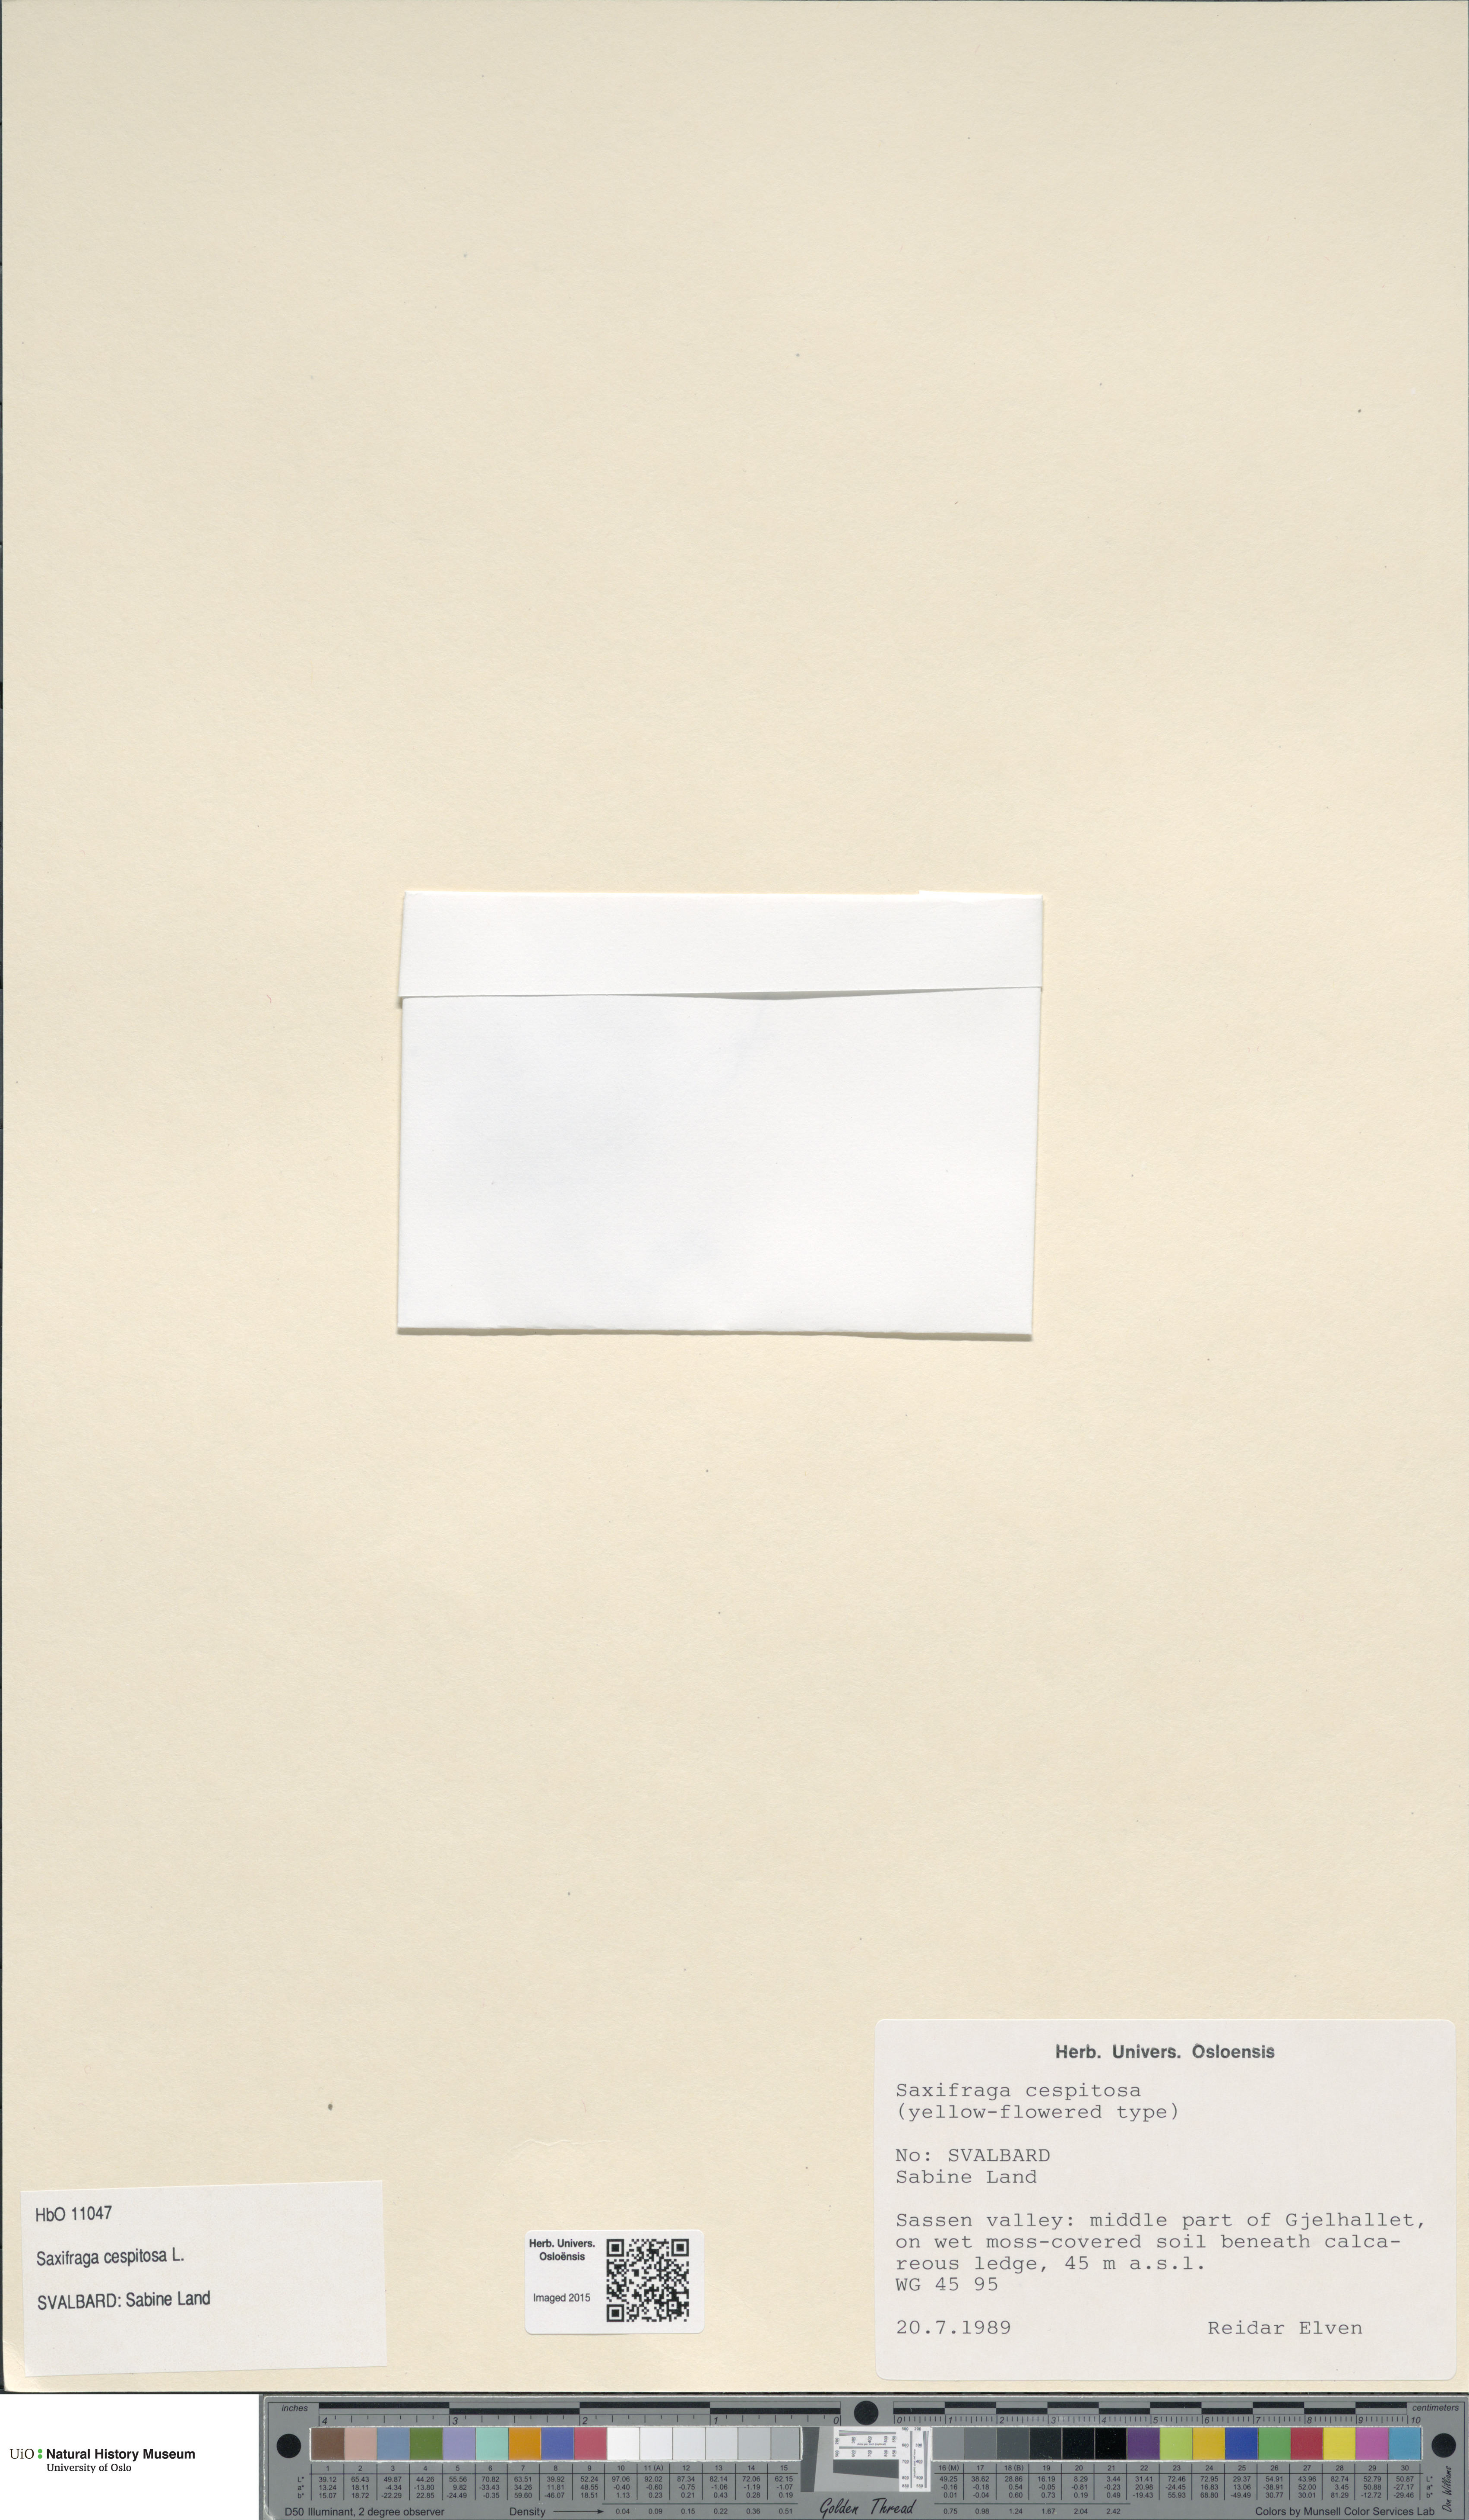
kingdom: Plantae
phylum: Tracheophyta
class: Magnoliopsida
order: Saxifragales
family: Saxifragaceae
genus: Saxifraga
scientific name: Saxifraga cespitosa
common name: Tufted saxifrage
